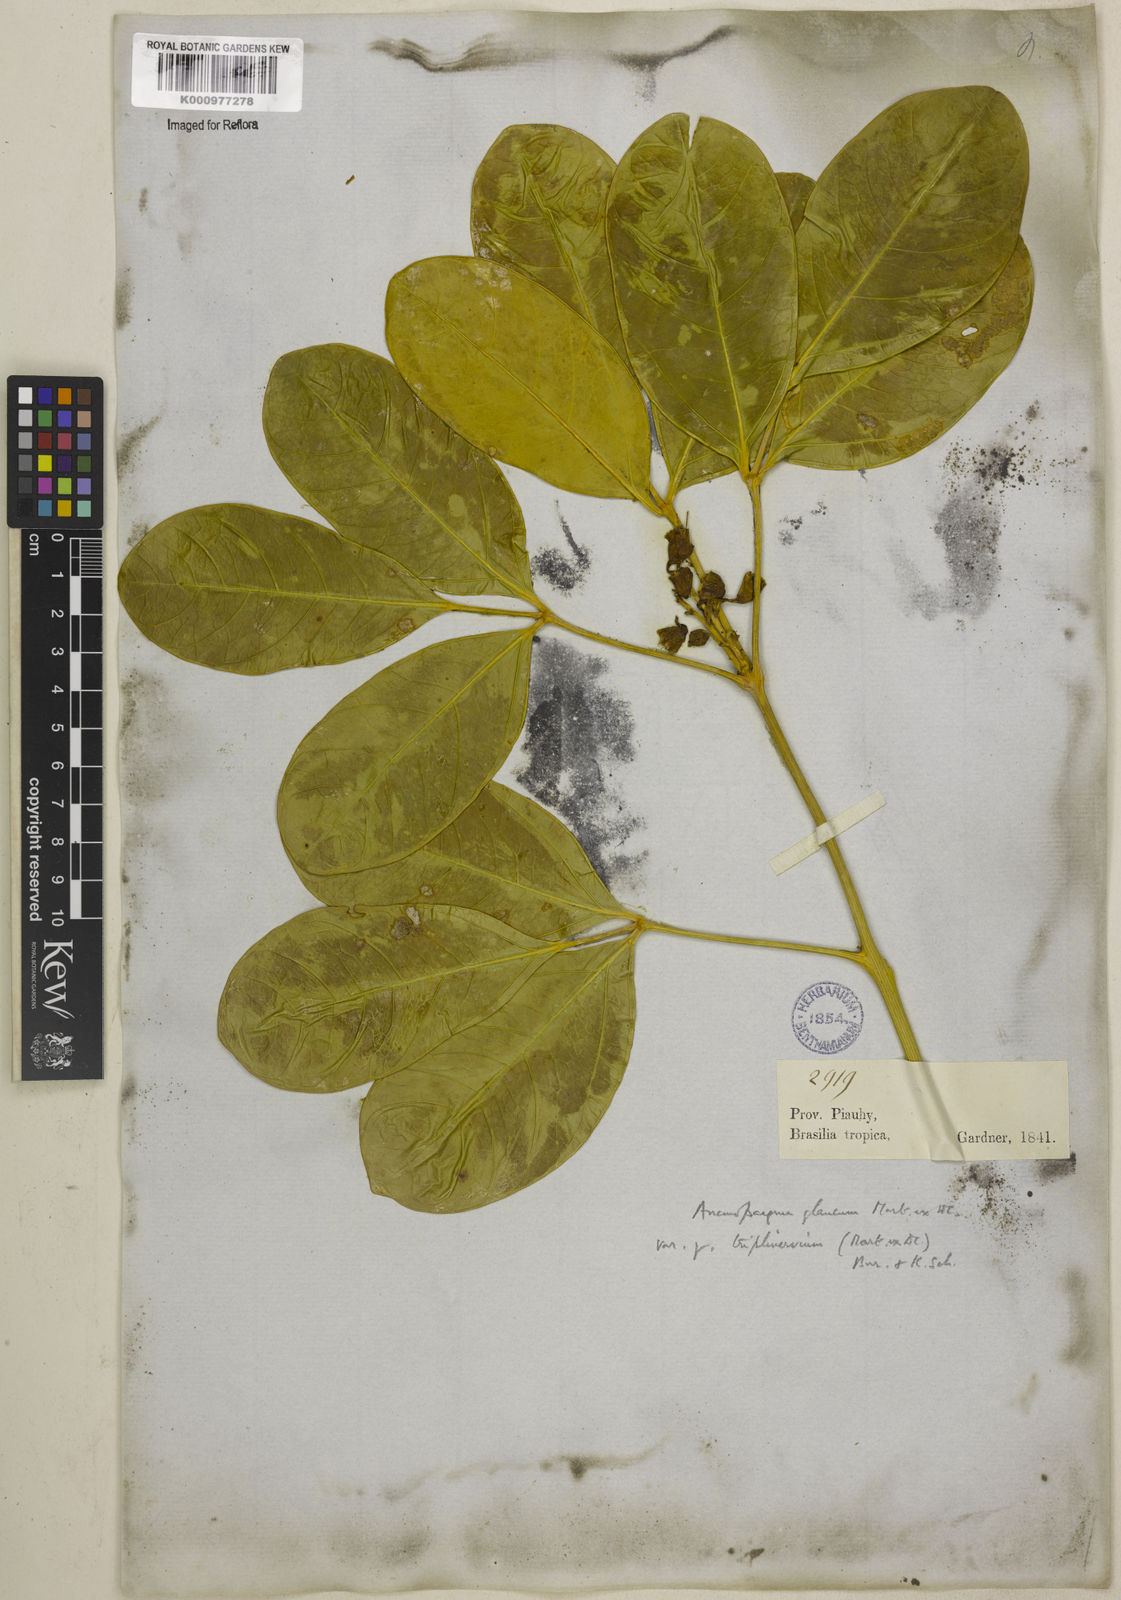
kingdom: Plantae
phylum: Tracheophyta
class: Magnoliopsida
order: Lamiales
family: Bignoniaceae
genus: Anemopaegma
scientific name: Anemopaegma glaucum
